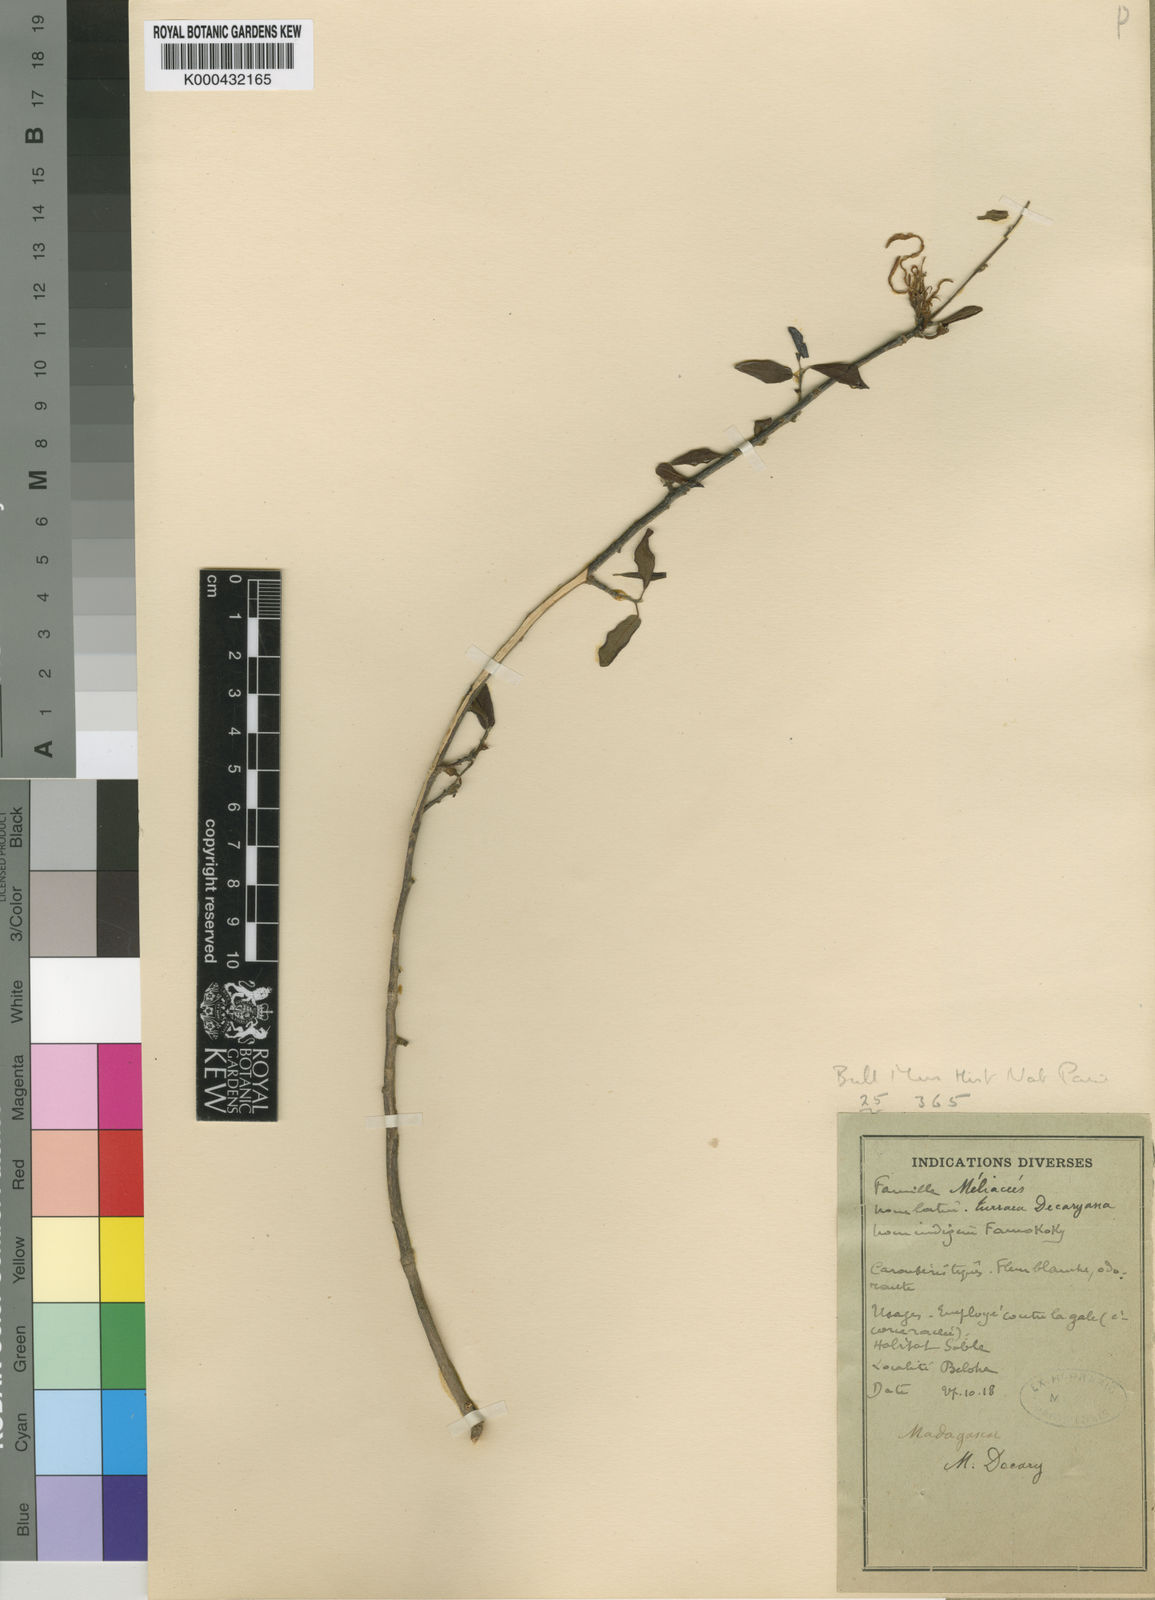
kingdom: Plantae
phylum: Tracheophyta
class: Magnoliopsida
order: Sapindales
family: Meliaceae
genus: Humbertioturraea
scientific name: Humbertioturraea decaryana
